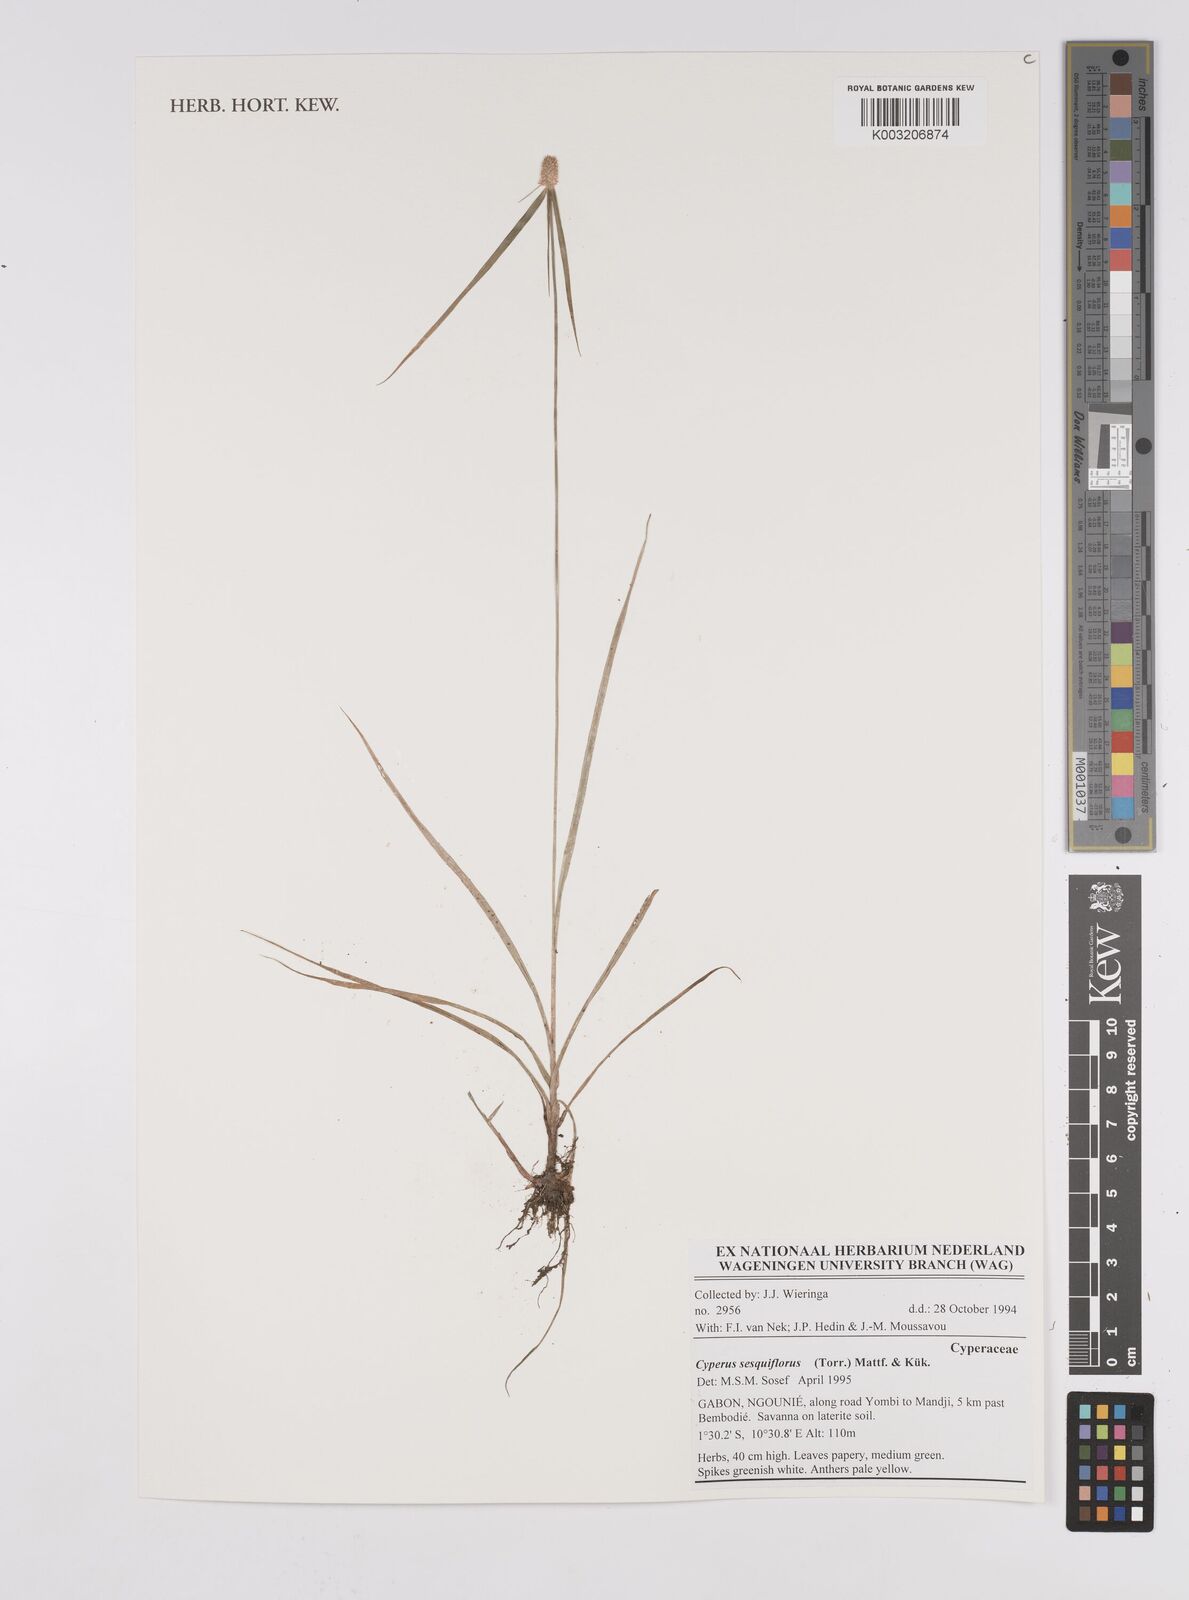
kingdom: Plantae
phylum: Tracheophyta
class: Liliopsida
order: Poales
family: Cyperaceae
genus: Cyperus
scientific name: Cyperus odoratus
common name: Fragrant flatsedge
